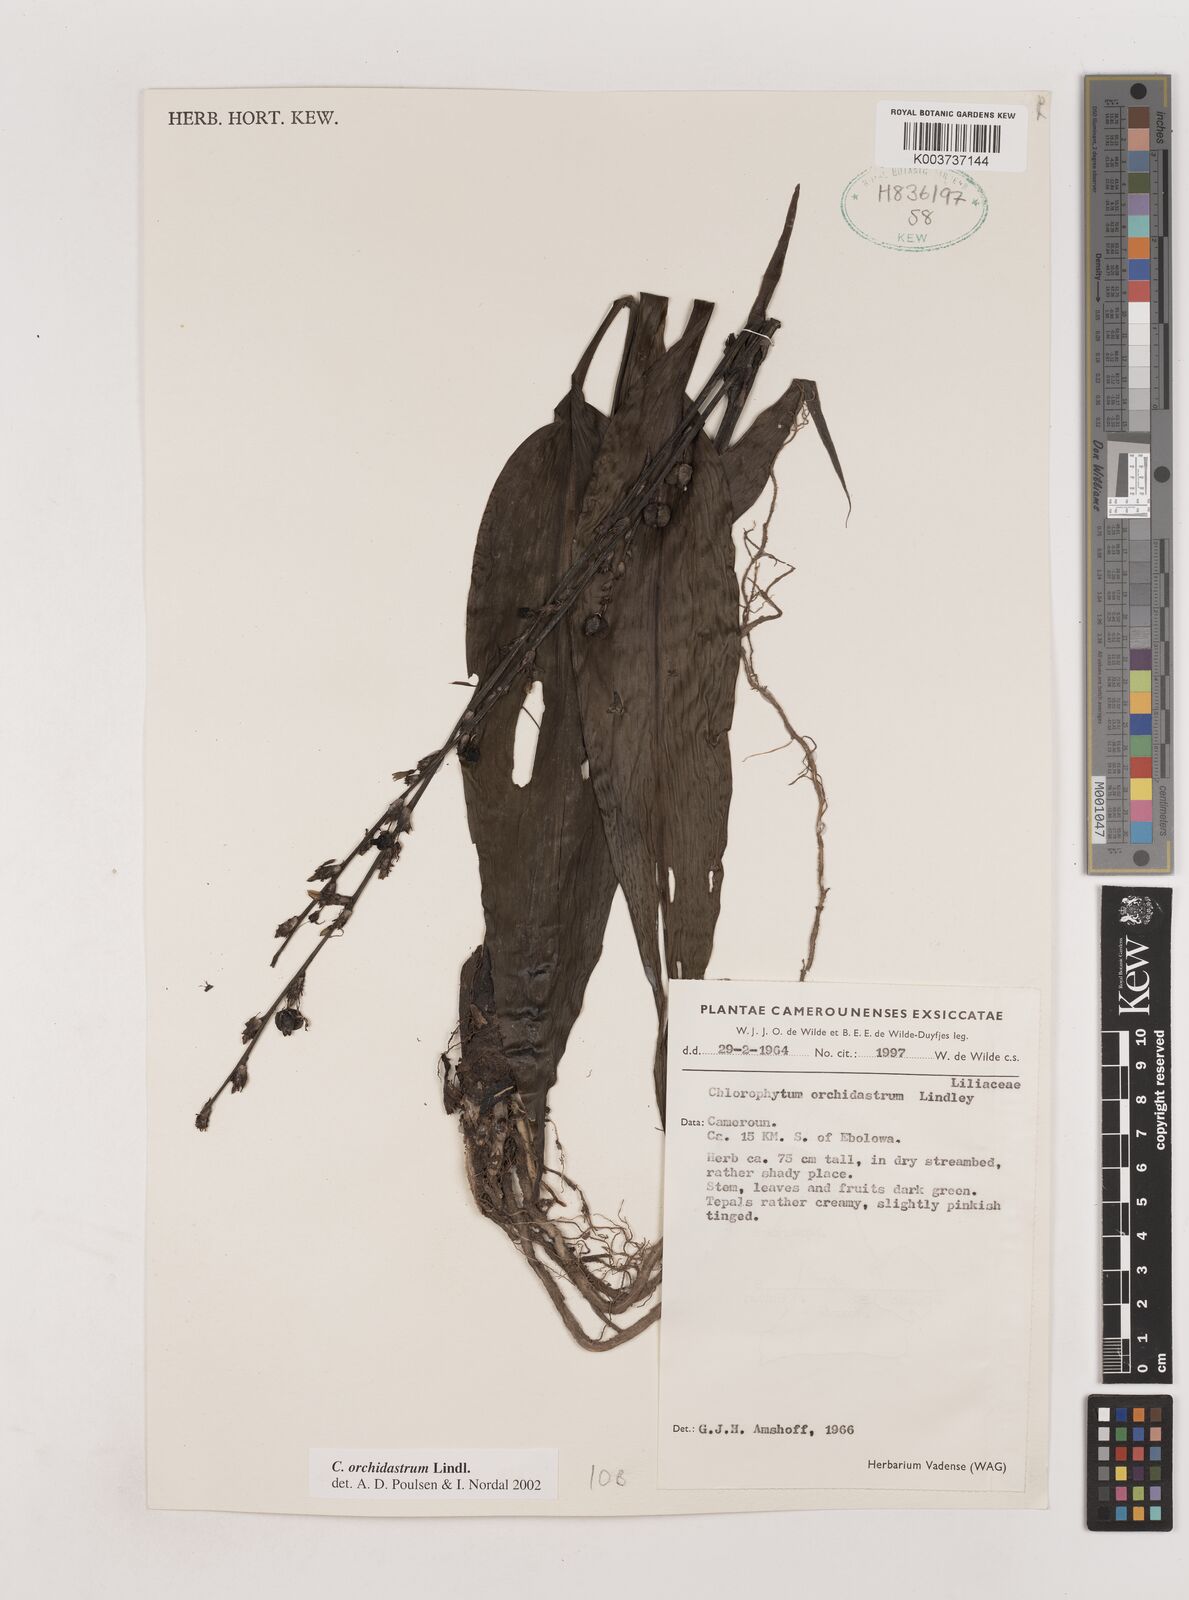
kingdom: Plantae
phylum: Tracheophyta
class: Liliopsida
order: Asparagales
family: Asparagaceae
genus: Chlorophytum
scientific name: Chlorophytum orchidastrum
